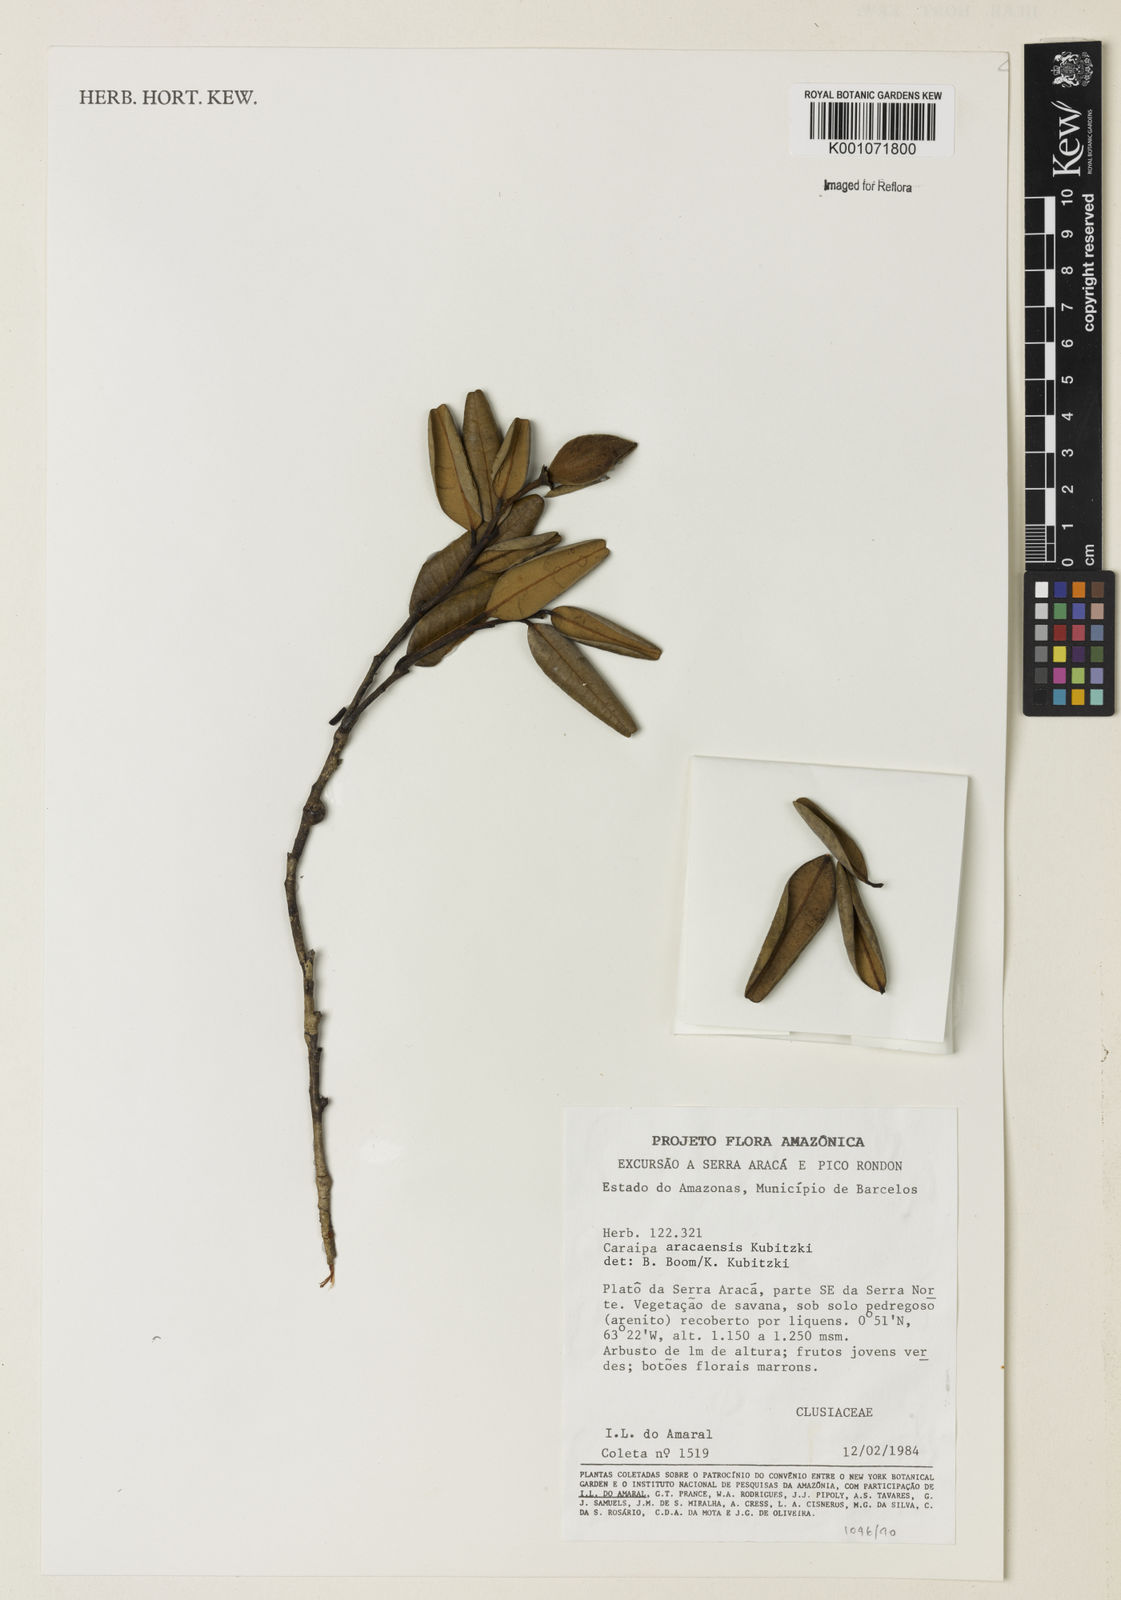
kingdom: Plantae
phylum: Tracheophyta
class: Magnoliopsida
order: Malpighiales
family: Calophyllaceae
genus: Caraipa
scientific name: Caraipa aracaensis
